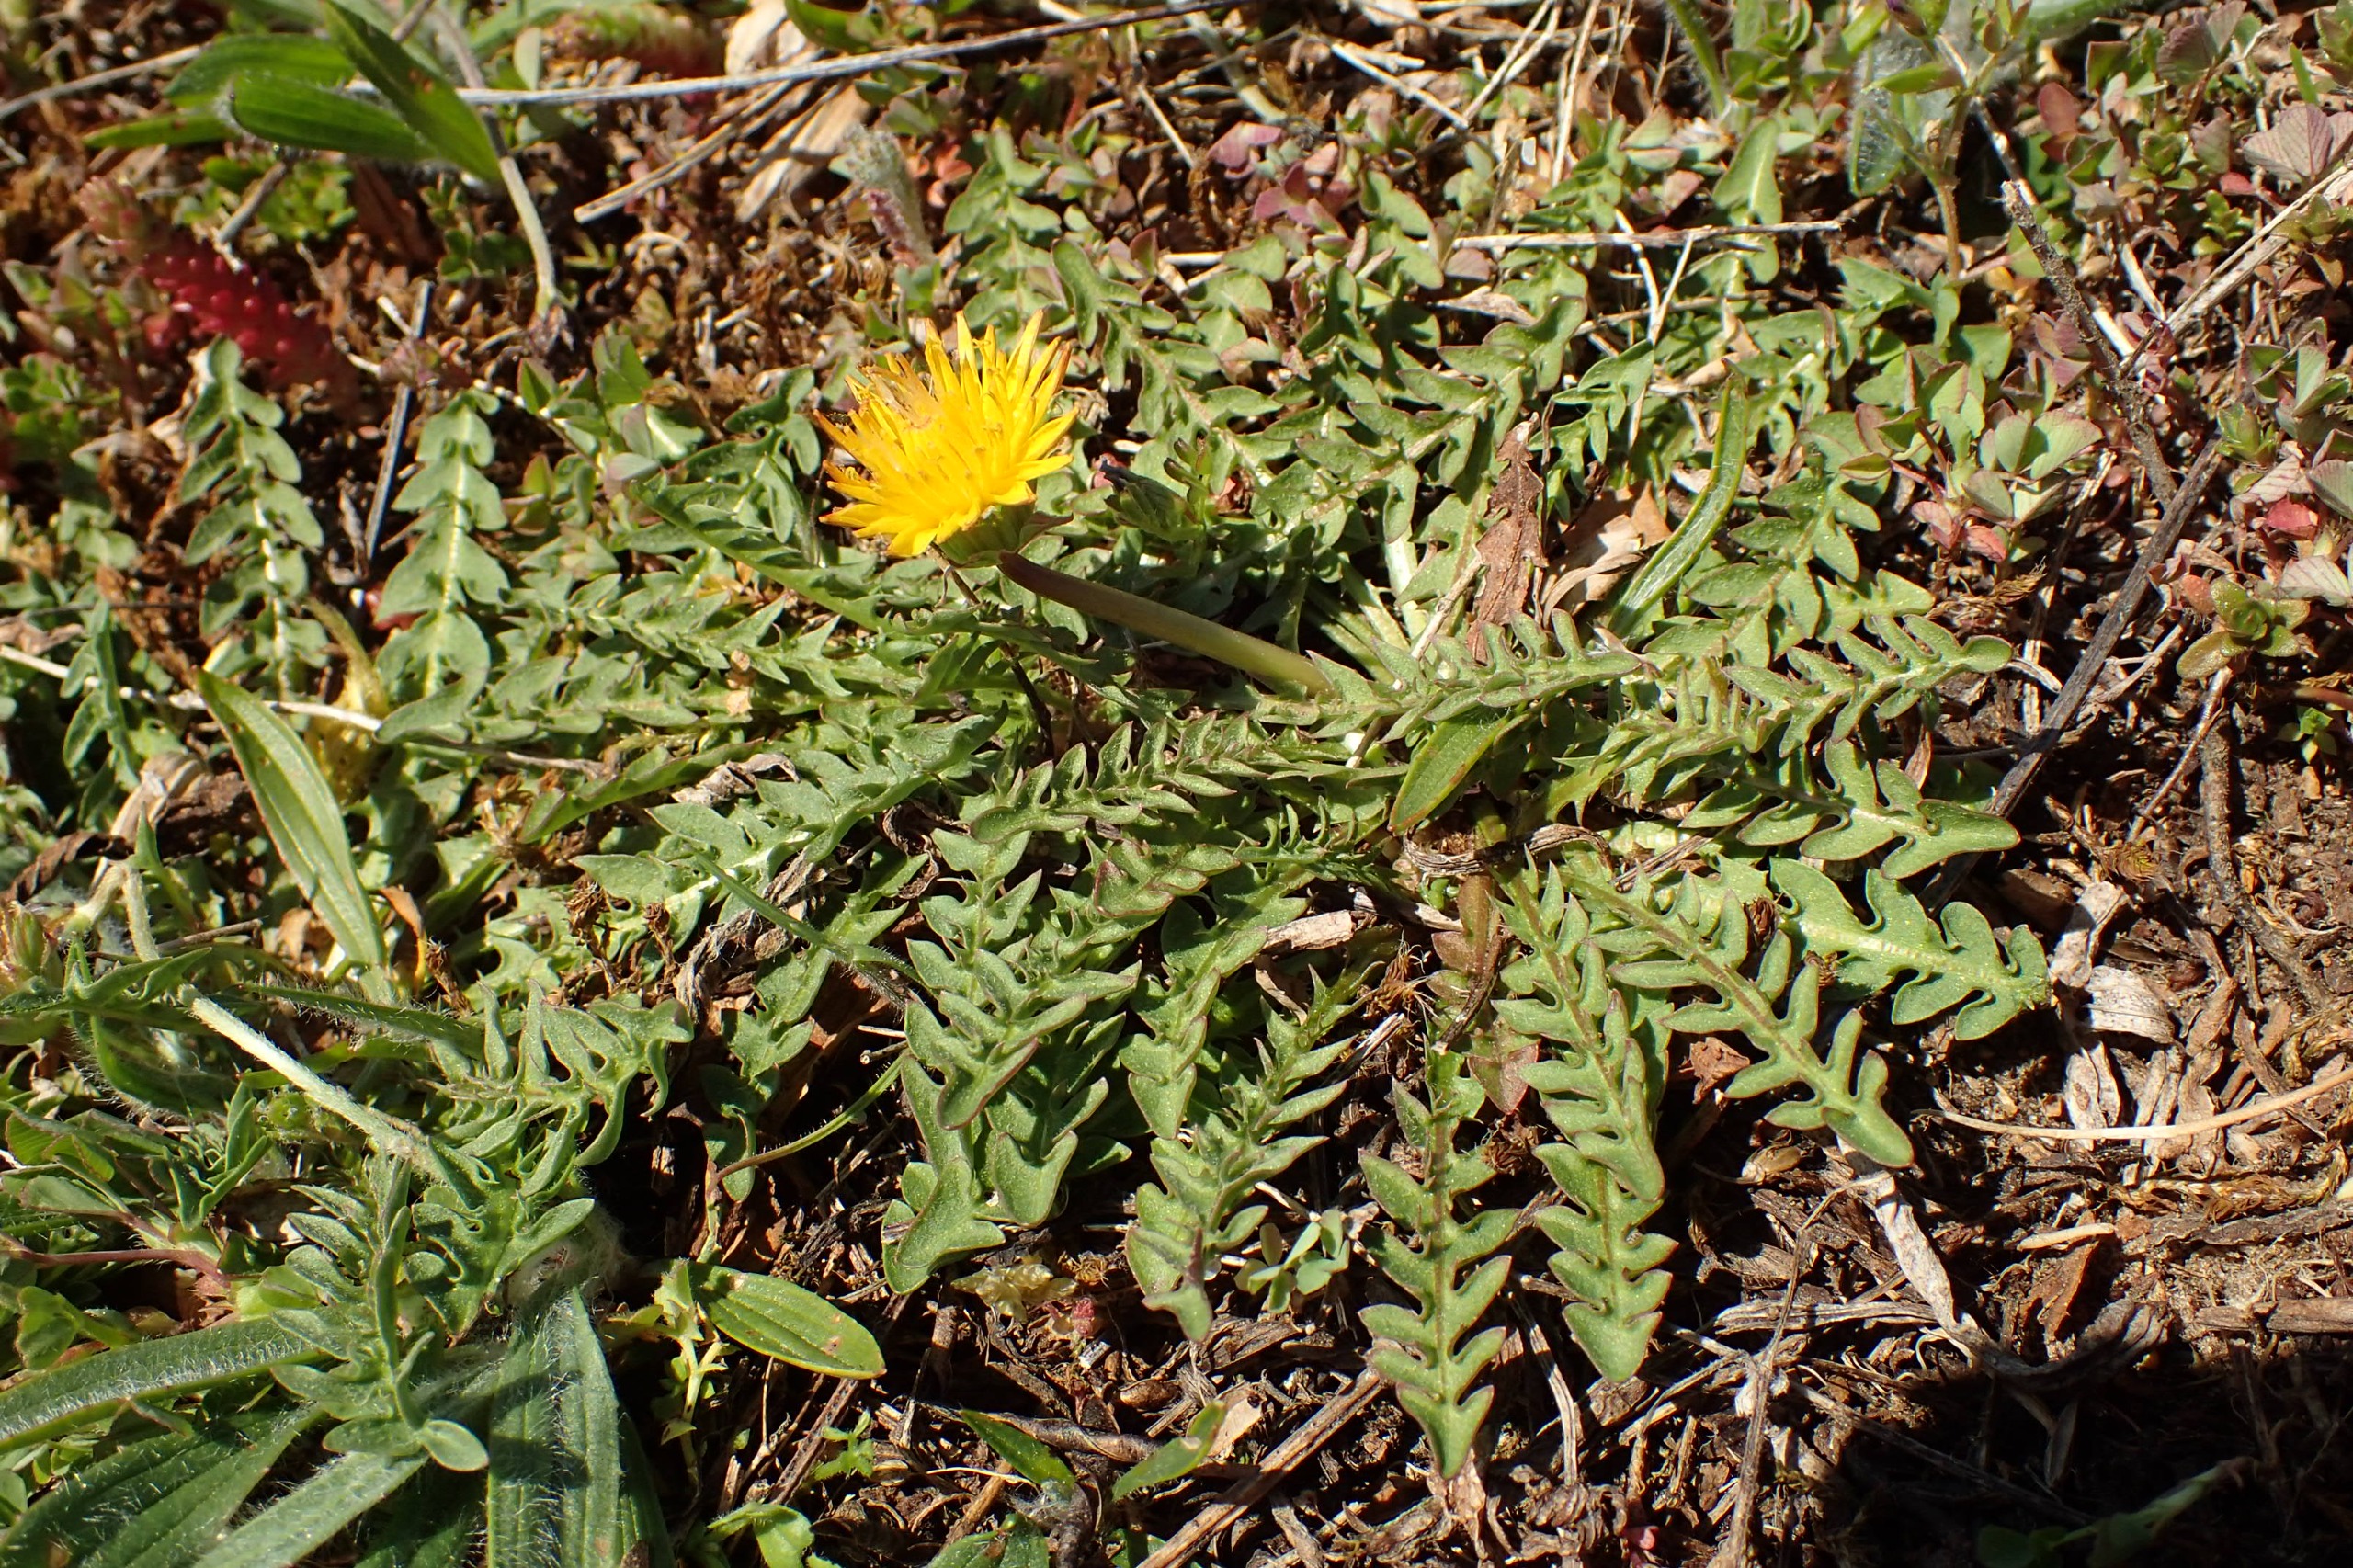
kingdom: Plantae
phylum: Tracheophyta
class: Magnoliopsida
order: Asterales
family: Asteraceae
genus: Taraxacum
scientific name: Taraxacum obliquum
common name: Gråfrugtet dværgmælkebøtte
